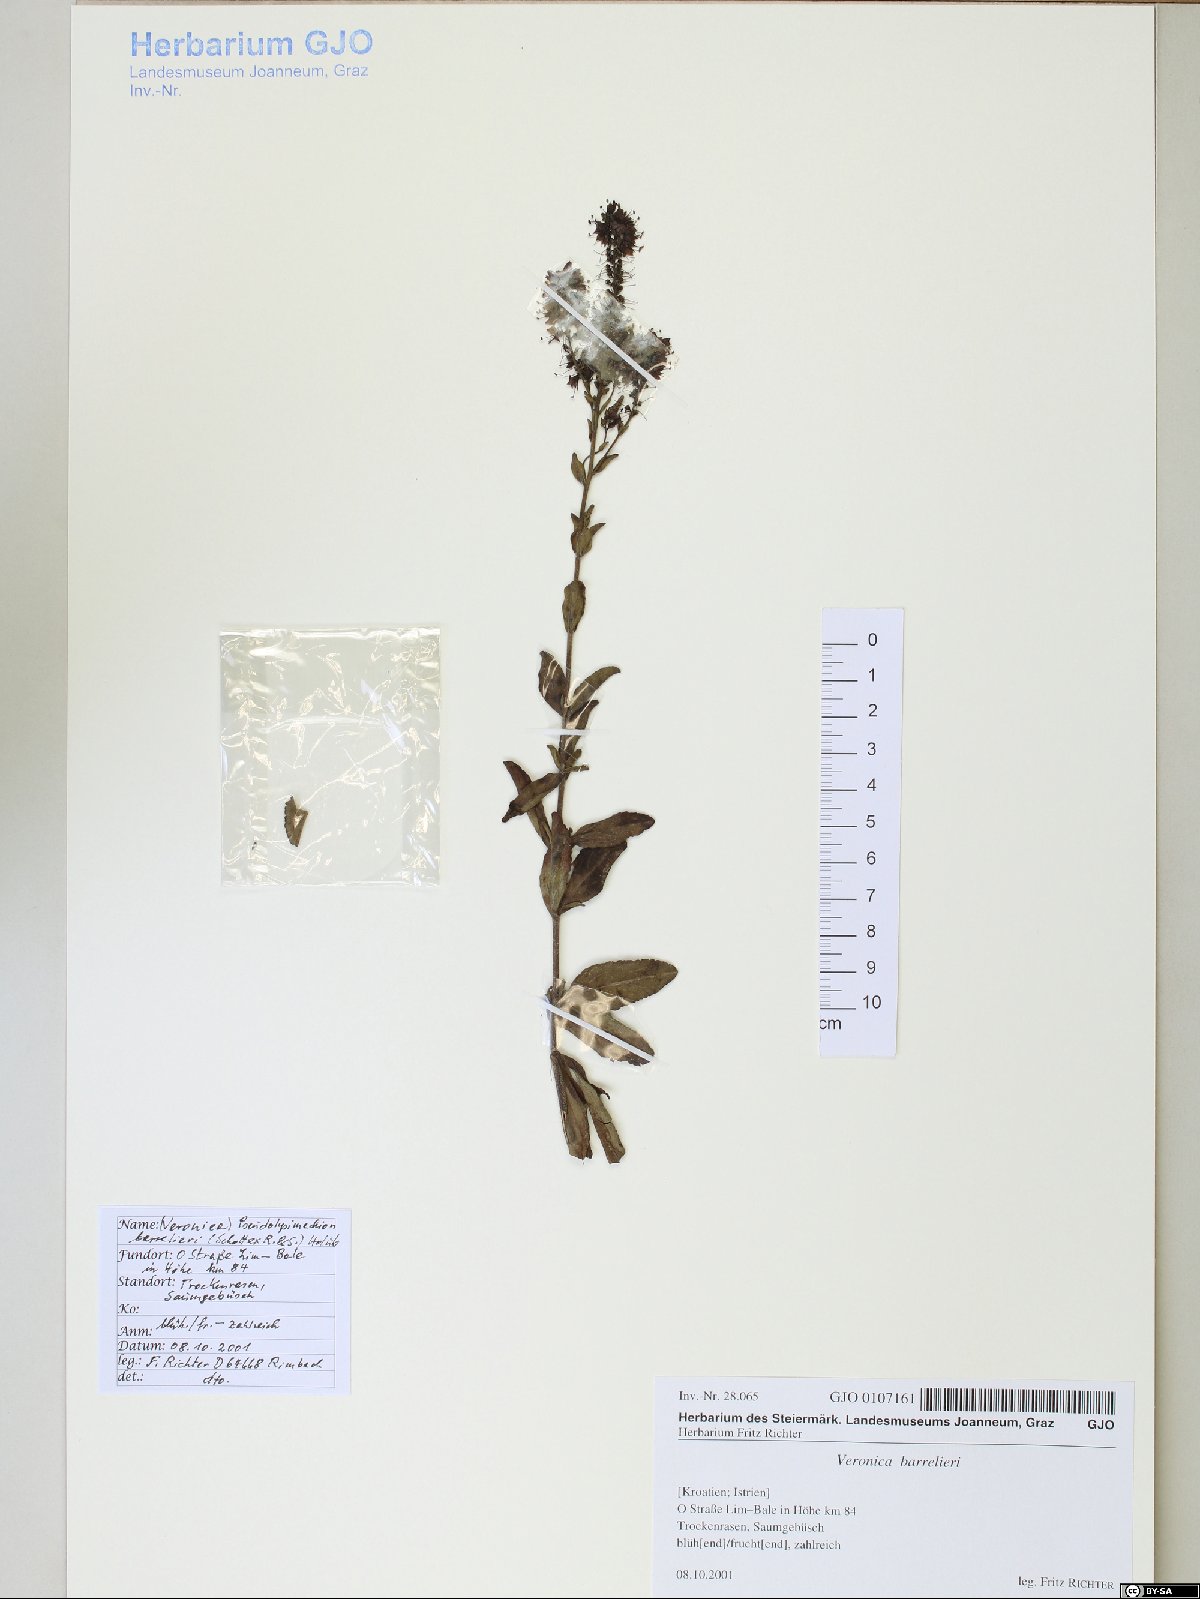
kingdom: Plantae
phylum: Tracheophyta
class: Magnoliopsida
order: Lamiales
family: Plantaginaceae
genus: Veronica
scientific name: Veronica barrelieri
